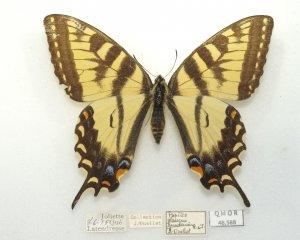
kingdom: Animalia
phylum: Arthropoda
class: Insecta
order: Lepidoptera
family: Papilionidae
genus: Pterourus
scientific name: Pterourus canadensis
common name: Canadian Tiger Swallowtail
